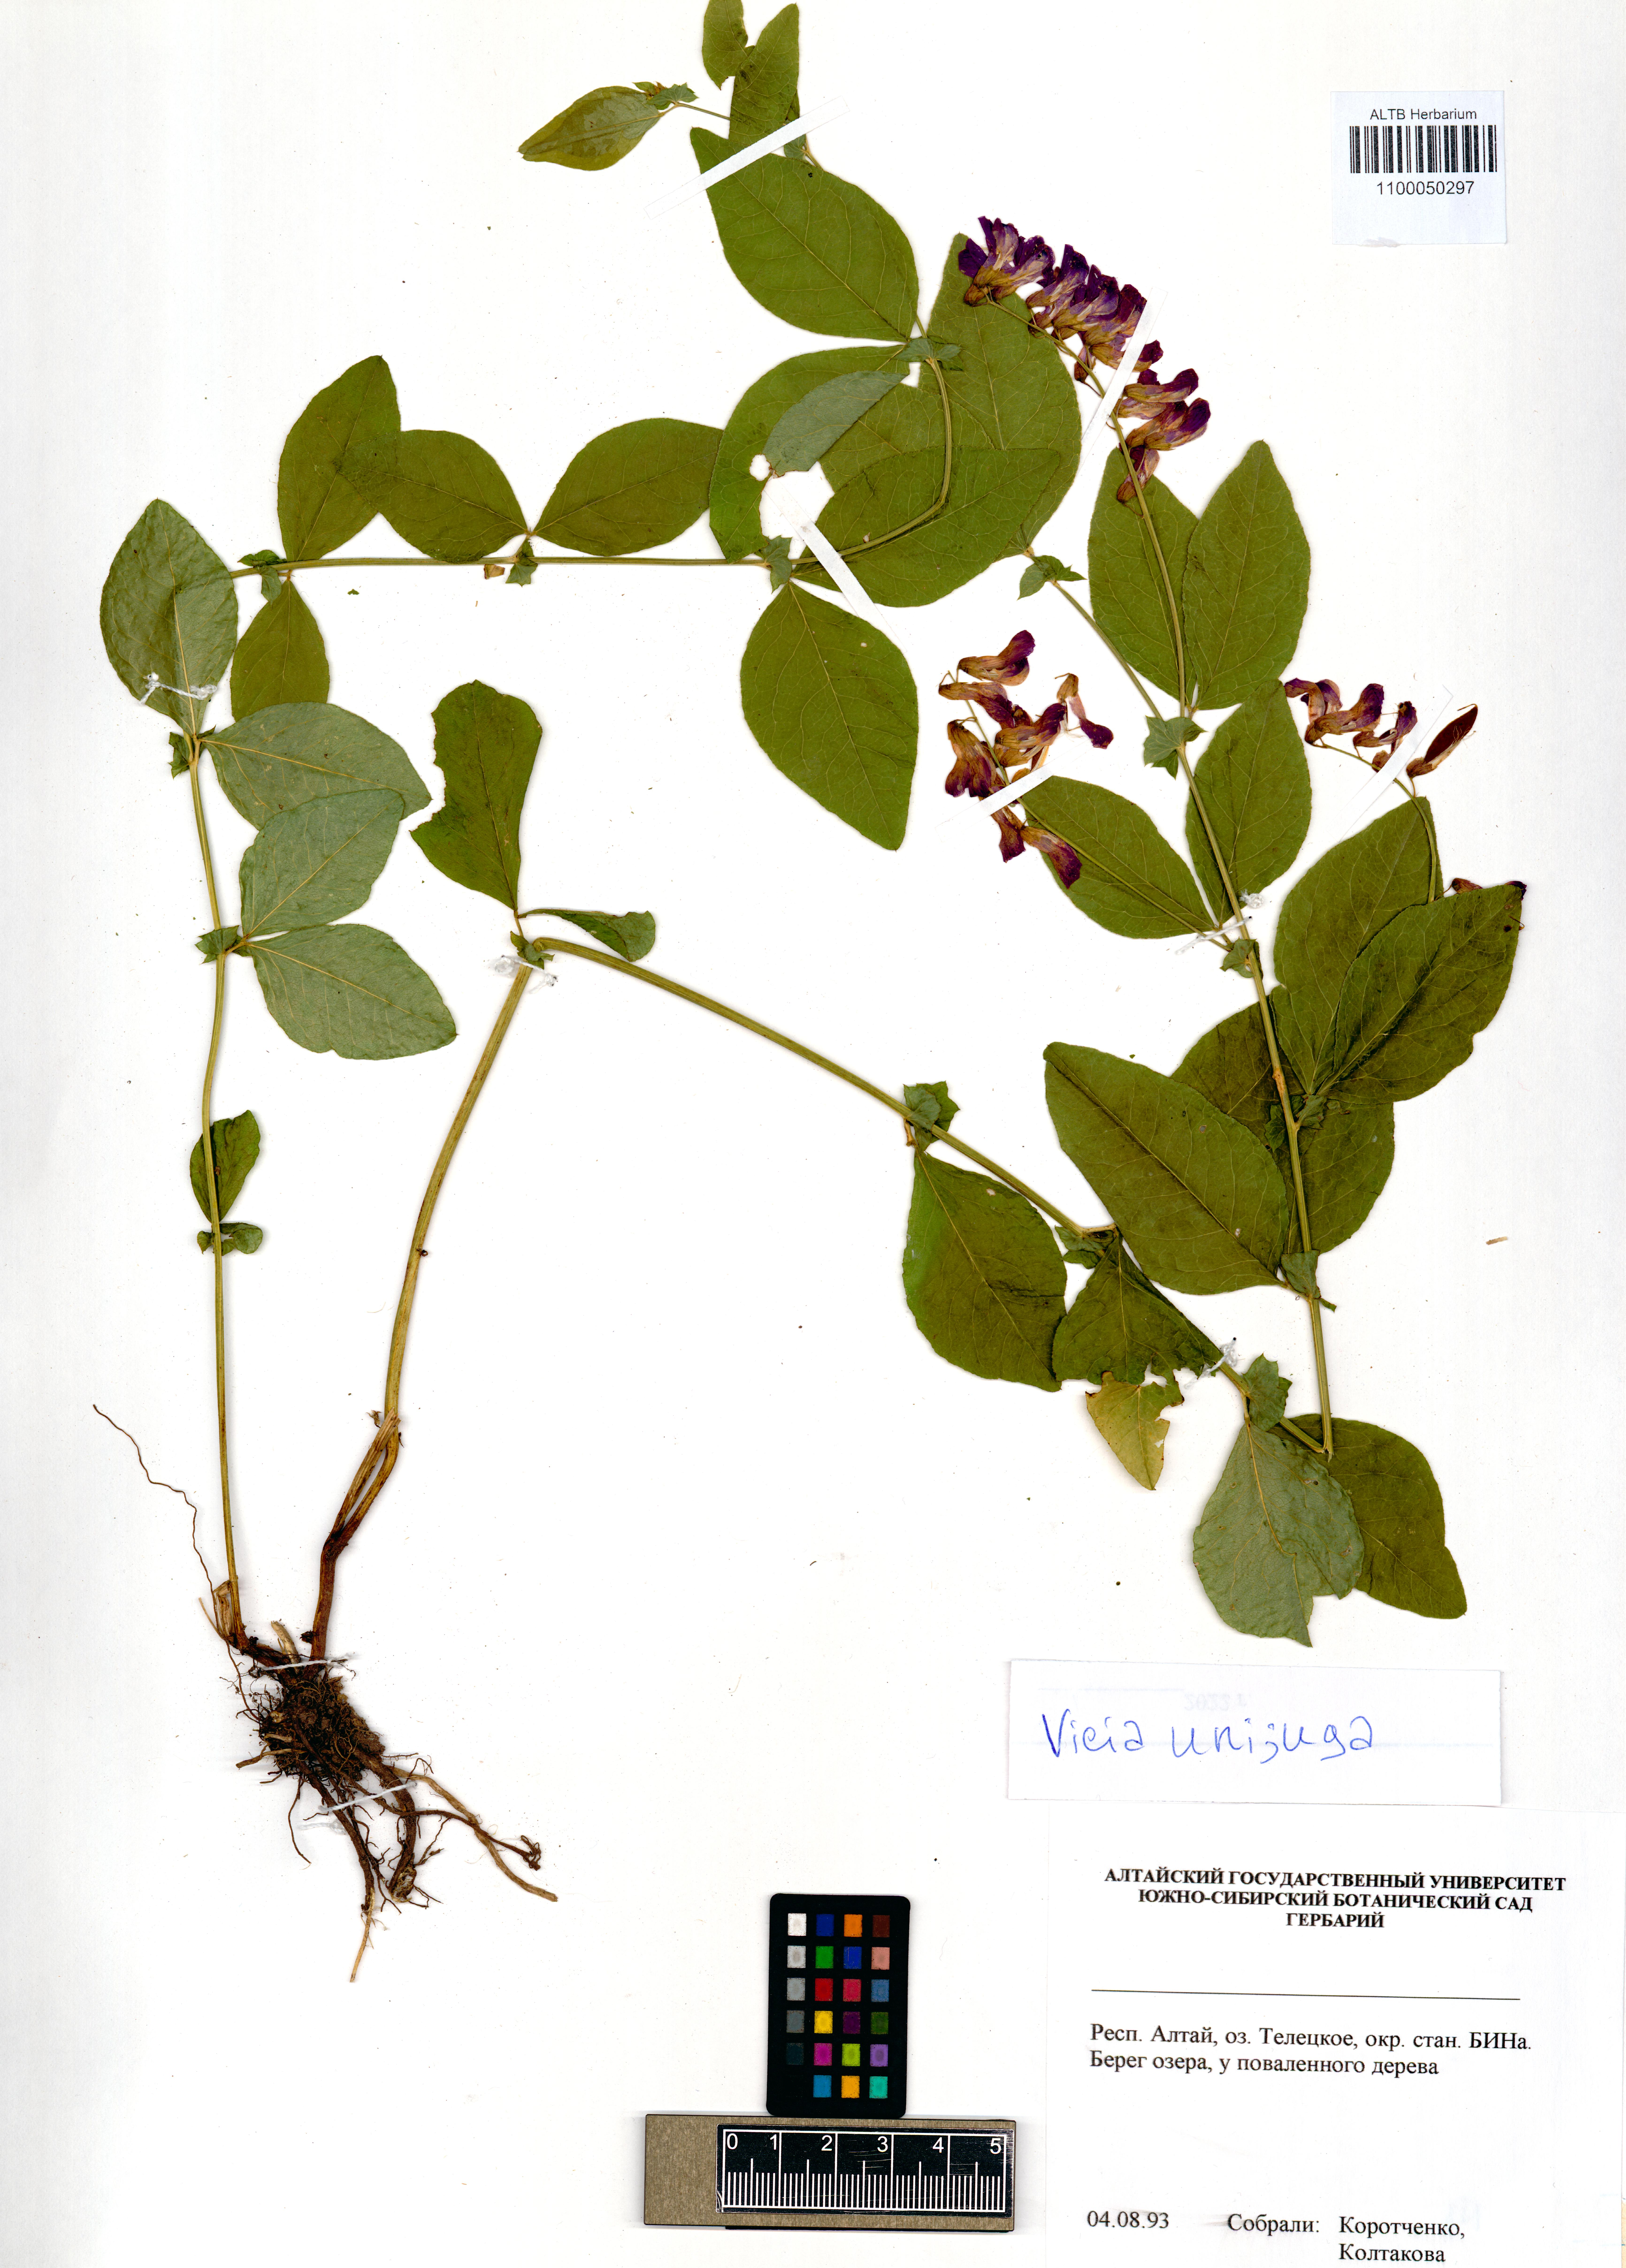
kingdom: Plantae
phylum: Tracheophyta
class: Magnoliopsida
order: Fabales
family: Fabaceae
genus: Vicia
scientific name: Vicia unijuga
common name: Two-leaf vetch
